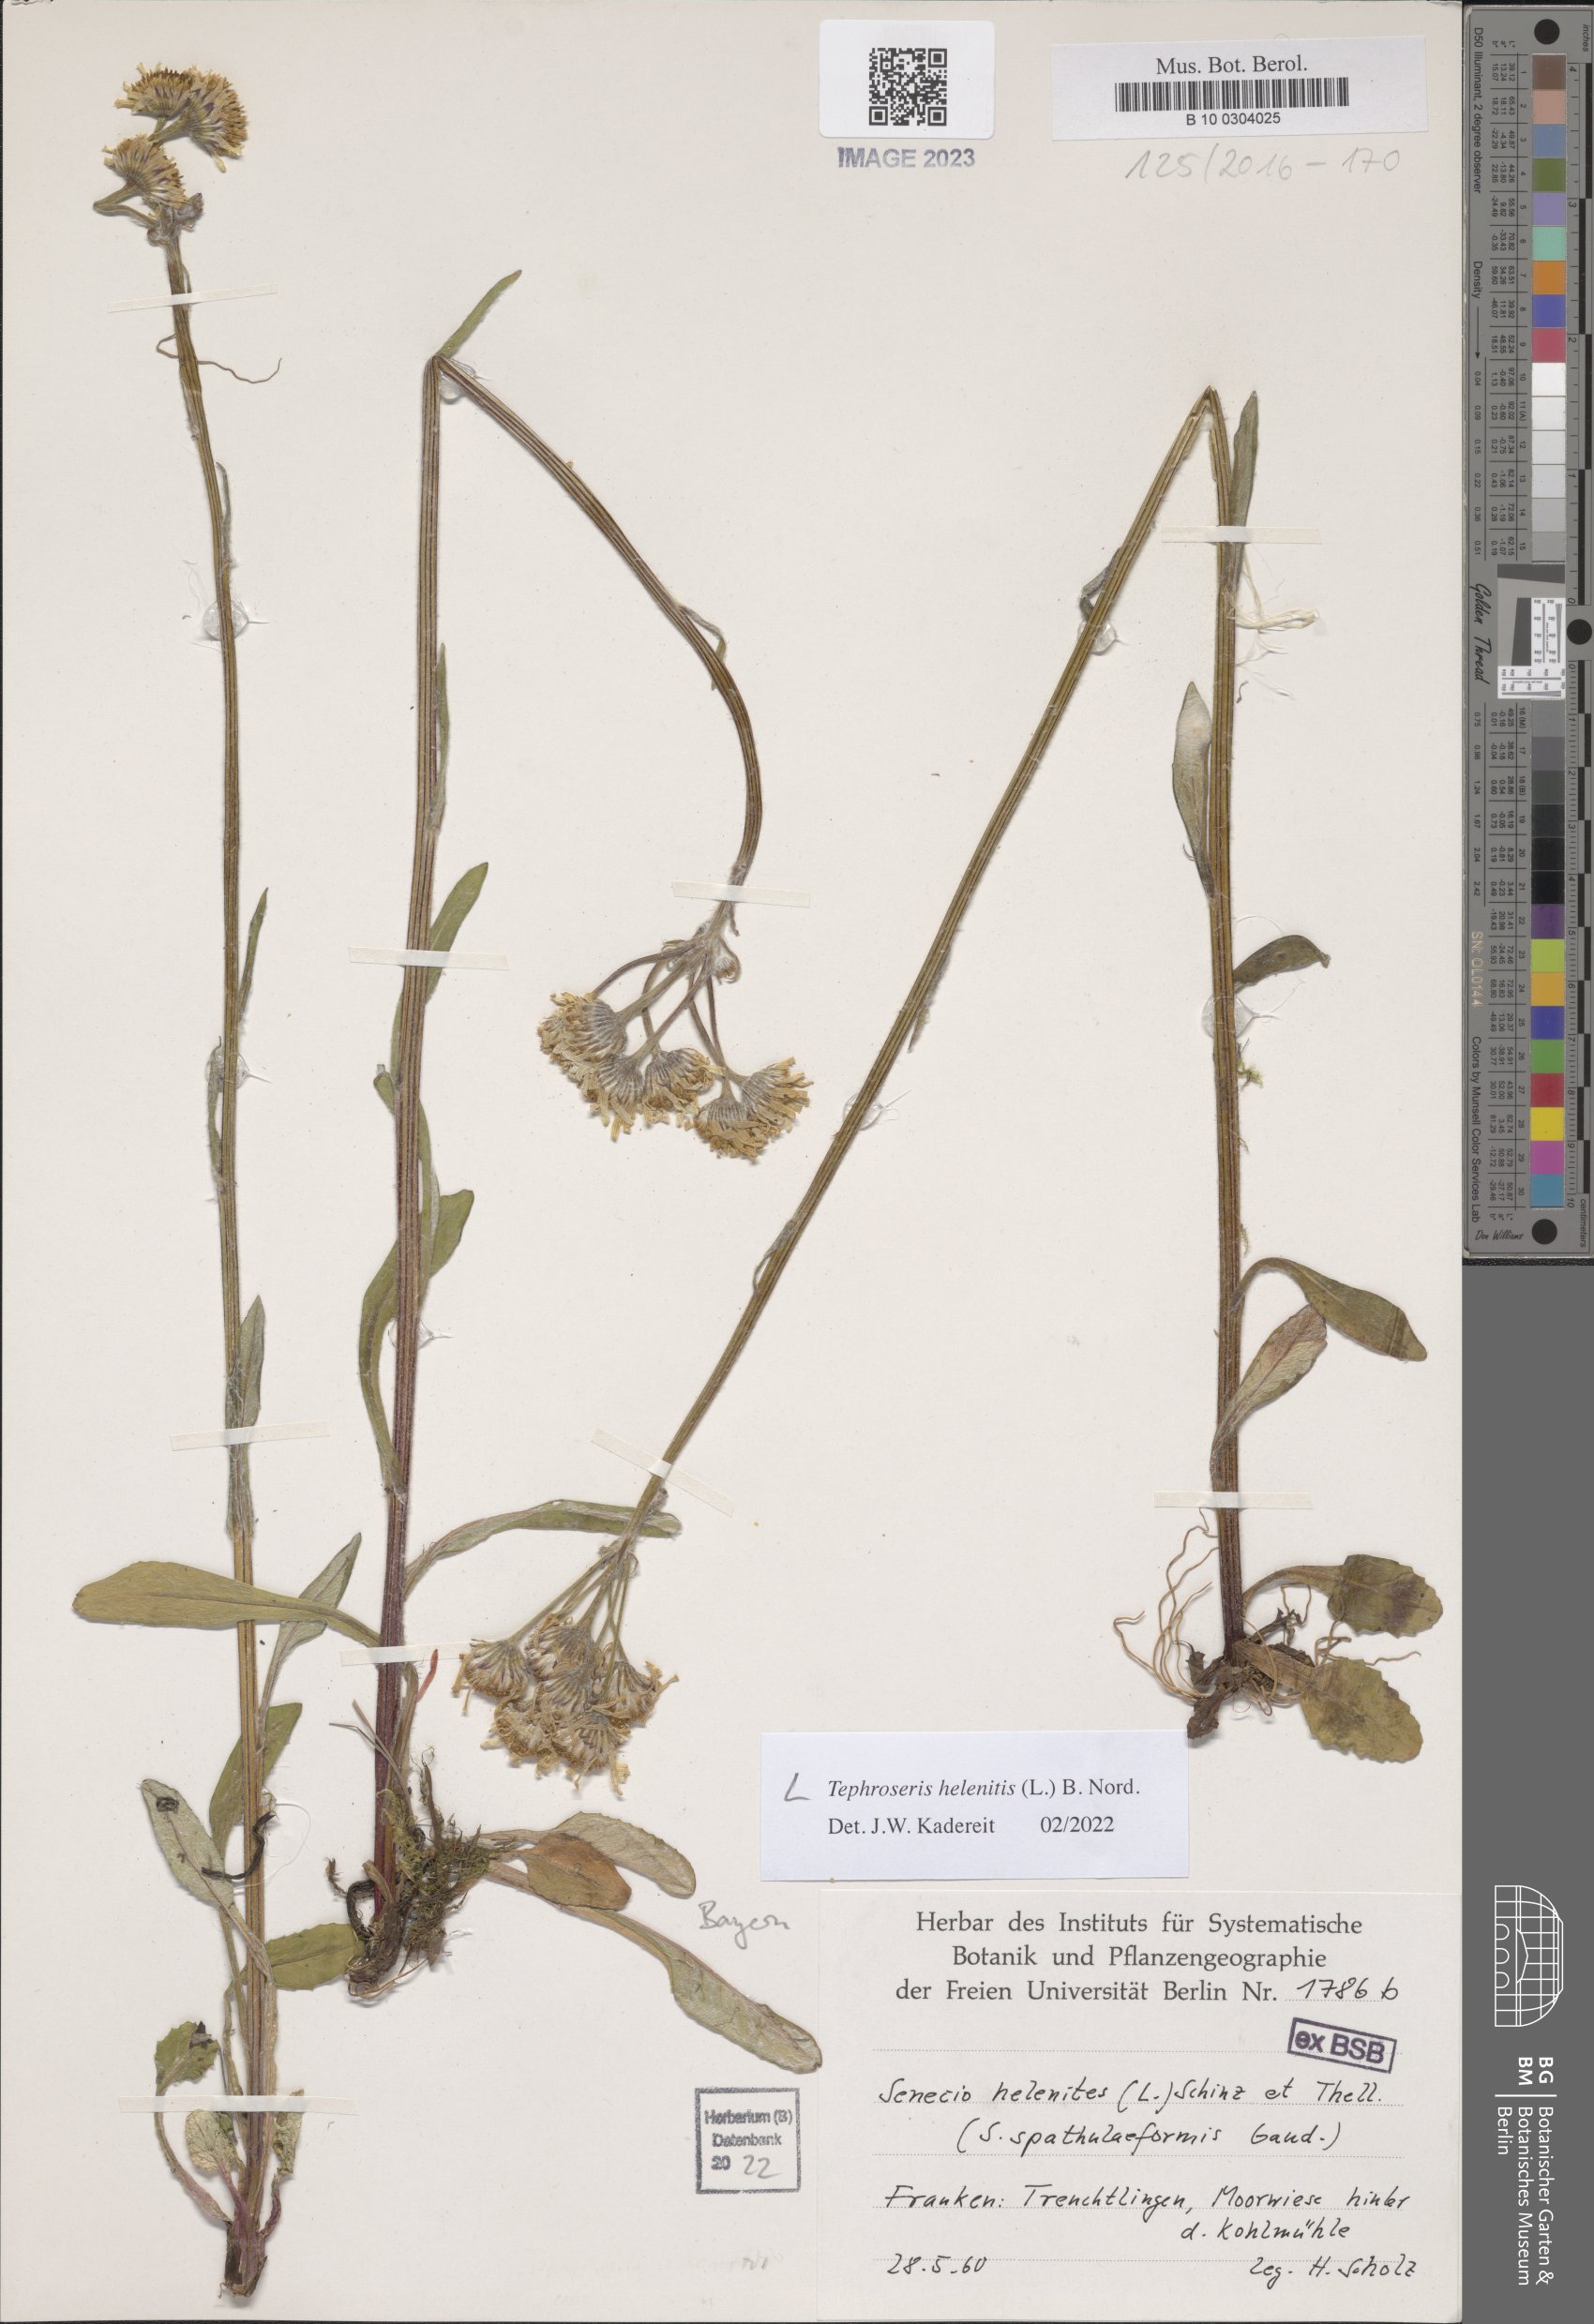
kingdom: Plantae
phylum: Tracheophyta
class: Magnoliopsida
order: Asterales
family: Asteraceae
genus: Tephroseris
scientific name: Tephroseris helenitis
